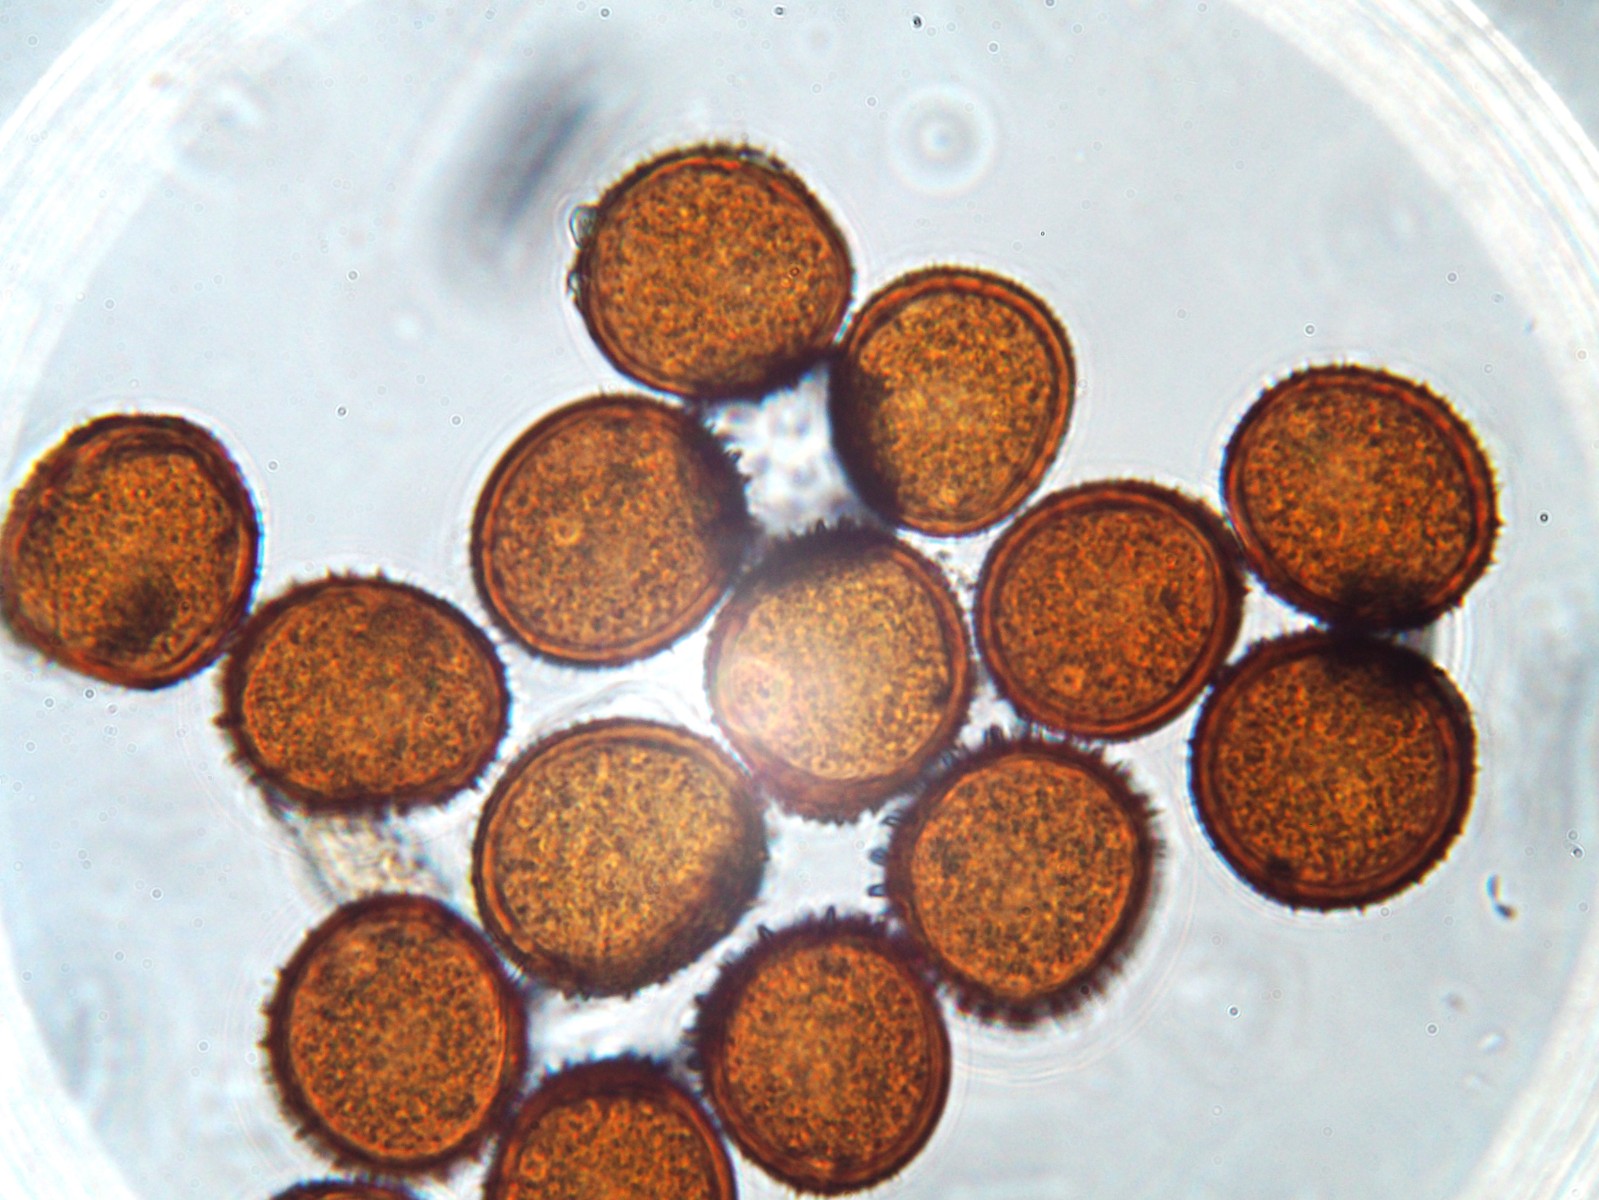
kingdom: Fungi
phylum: Basidiomycota
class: Pucciniomycetes
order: Pucciniales
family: Pucciniaceae
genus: Puccinia
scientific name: Puccinia hieracii
